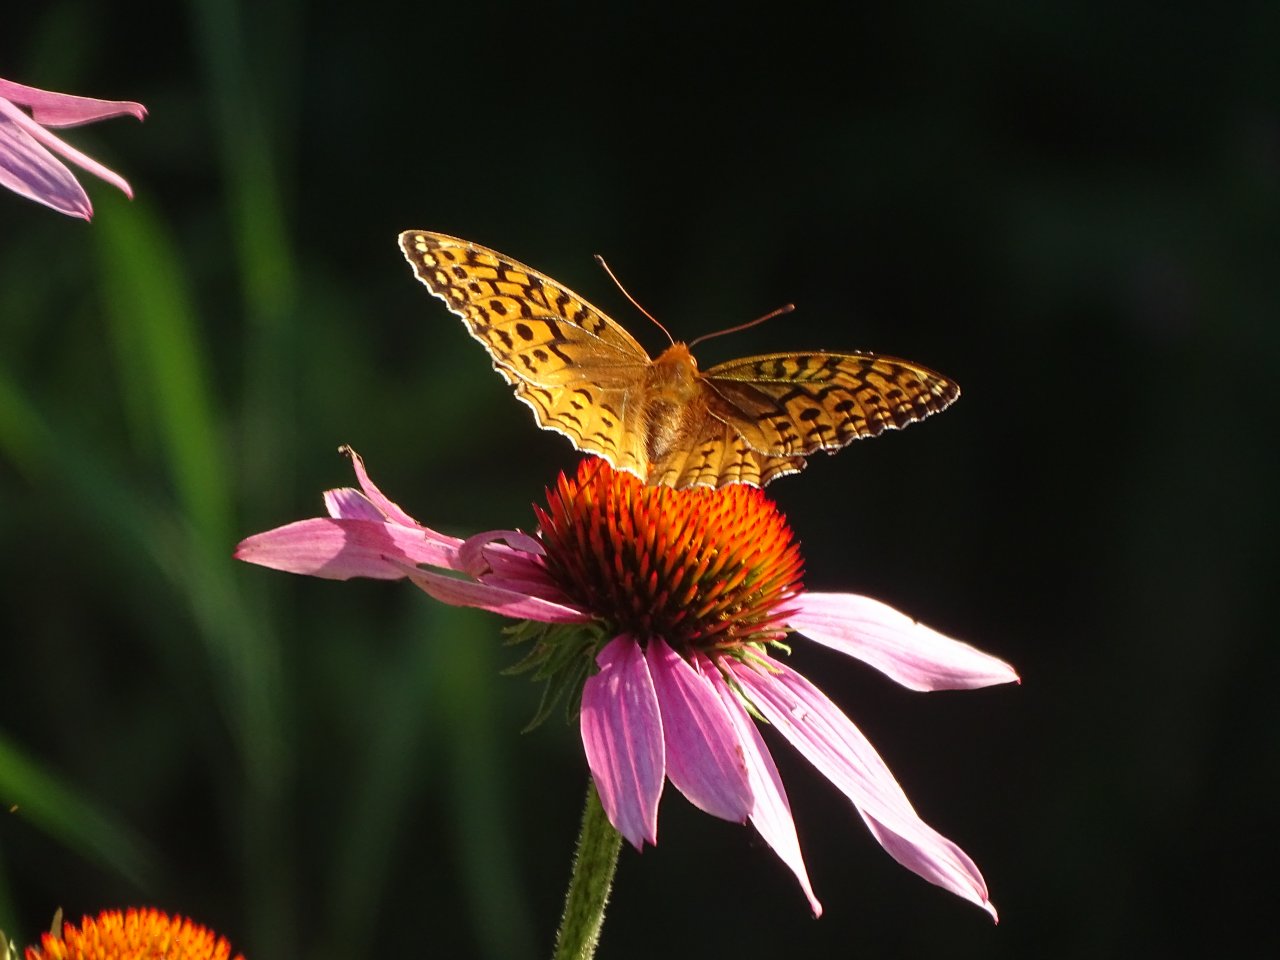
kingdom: Animalia
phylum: Arthropoda
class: Insecta
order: Lepidoptera
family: Nymphalidae
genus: Speyeria
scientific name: Speyeria cybele
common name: Great Spangled Fritillary
